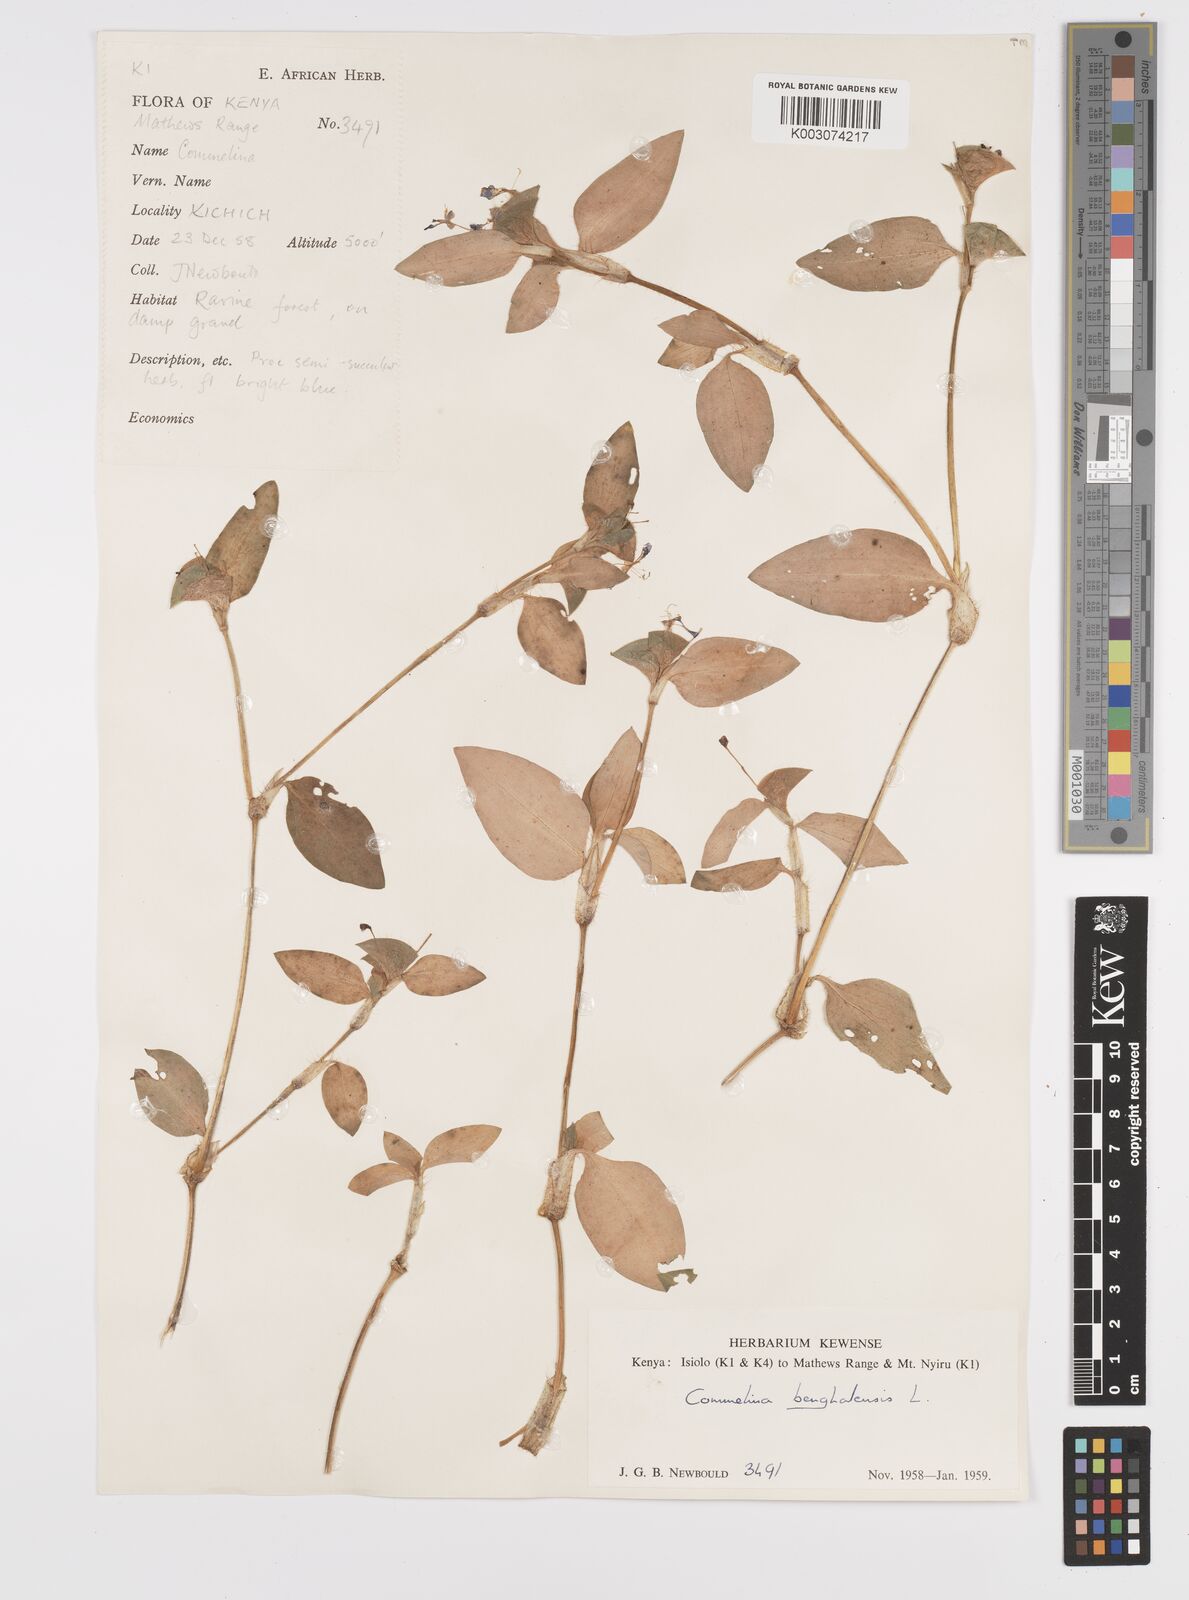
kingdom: Plantae
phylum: Tracheophyta
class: Liliopsida
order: Commelinales
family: Commelinaceae
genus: Commelina
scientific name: Commelina benghalensis
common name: Jio
